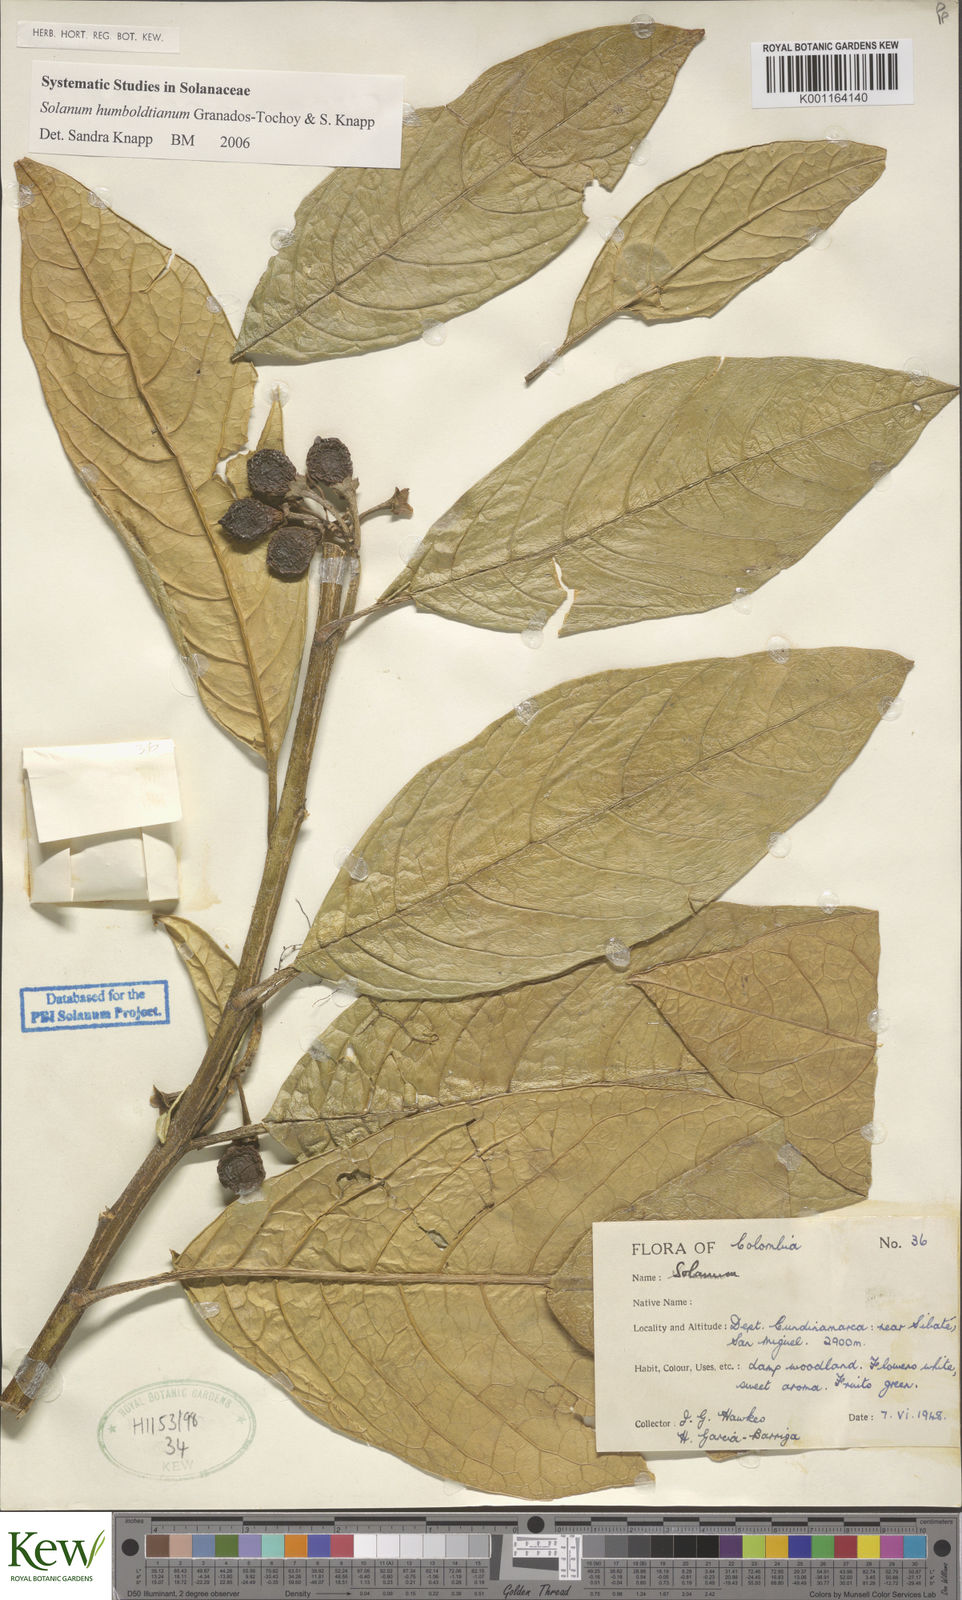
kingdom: Plantae
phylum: Tracheophyta
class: Magnoliopsida
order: Solanales
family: Solanaceae
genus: Solanum
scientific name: Solanum volubile
